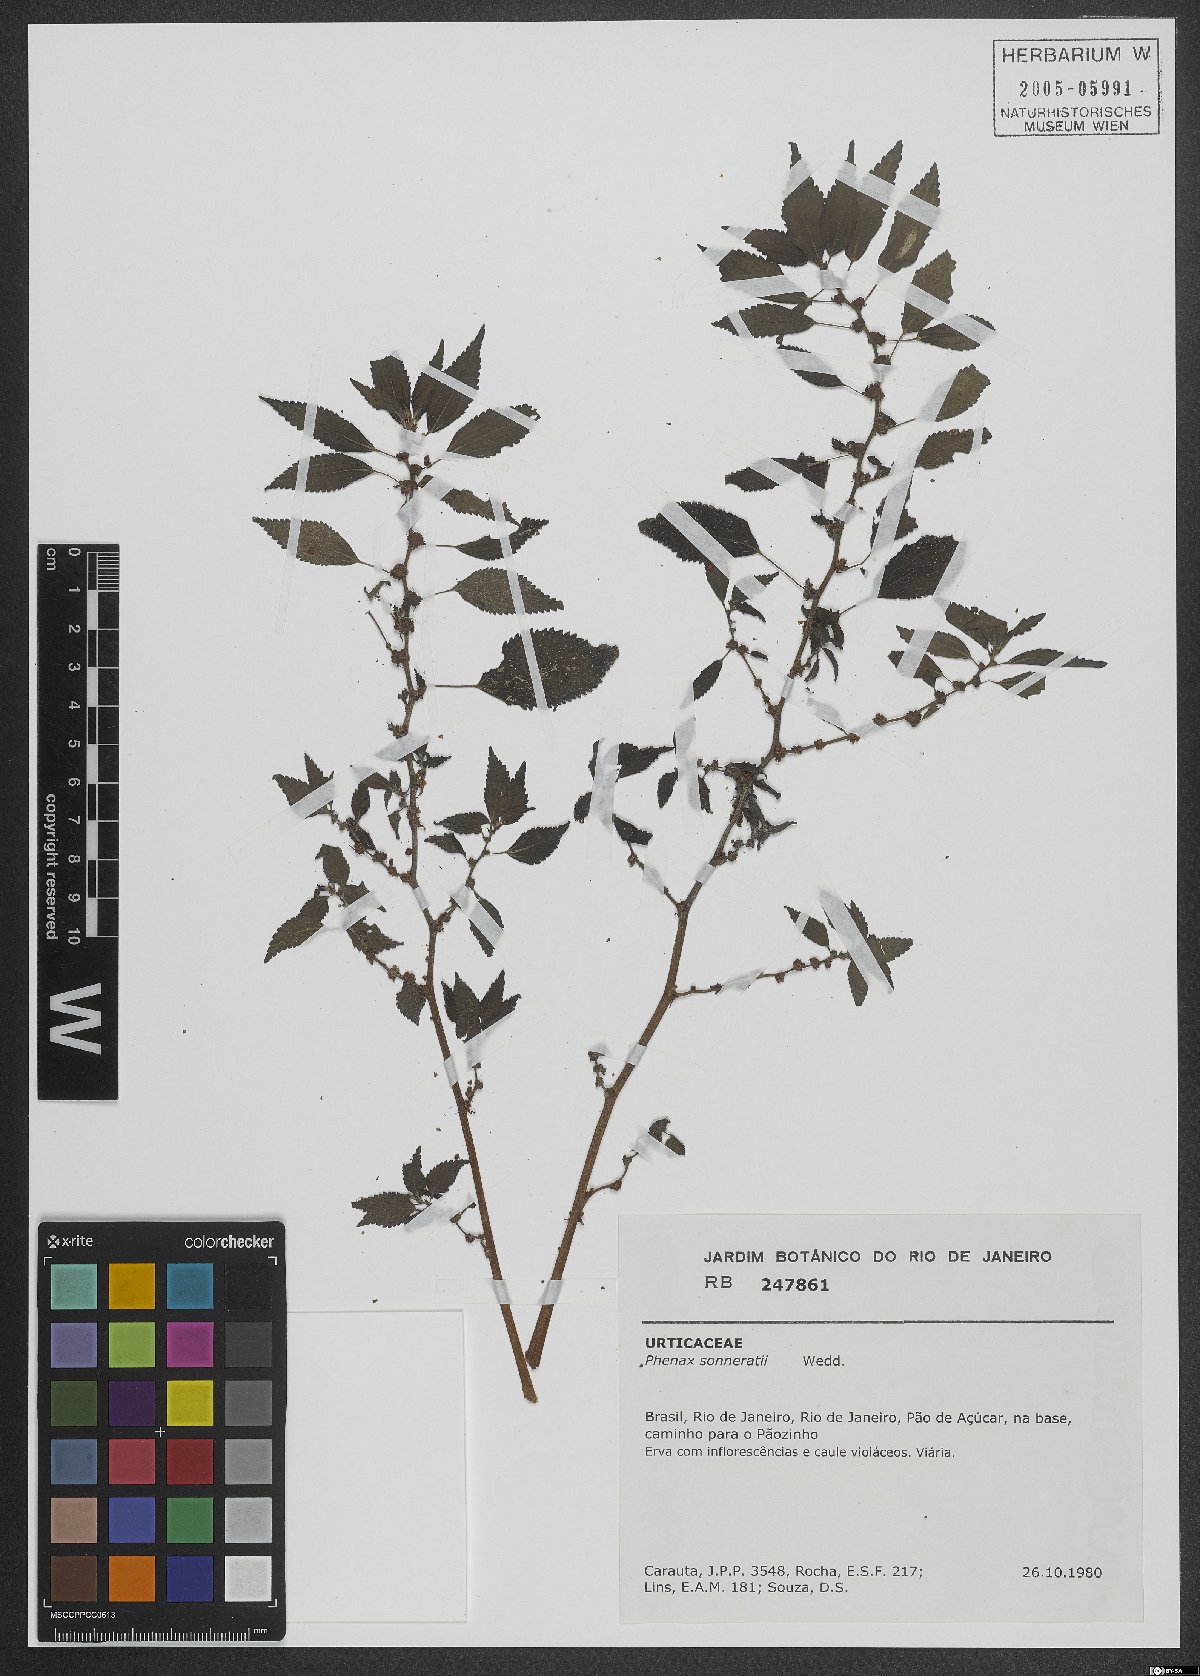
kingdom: Plantae
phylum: Tracheophyta
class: Magnoliopsida
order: Rosales
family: Urticaceae
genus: Phenax
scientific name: Phenax sonneratii
